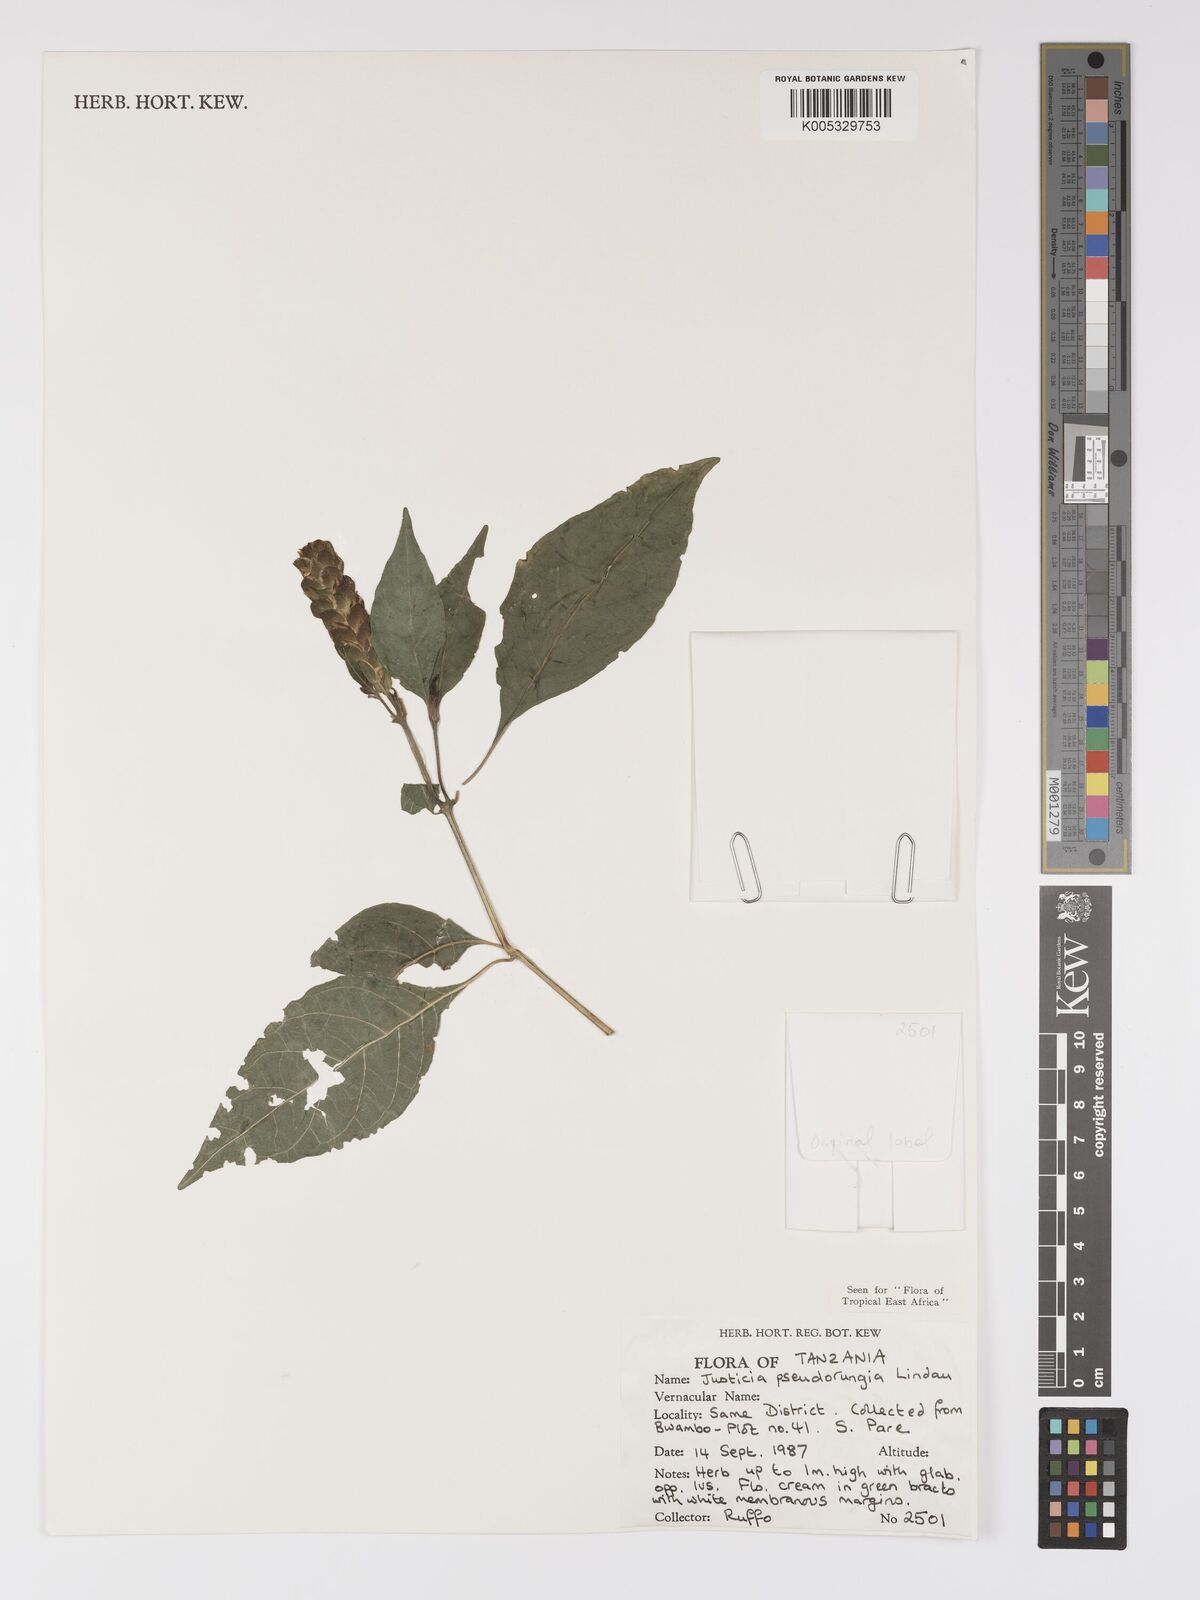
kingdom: Plantae
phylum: Tracheophyta
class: Magnoliopsida
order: Lamiales
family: Acanthaceae
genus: Justicia
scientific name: Justicia pseudorungia
